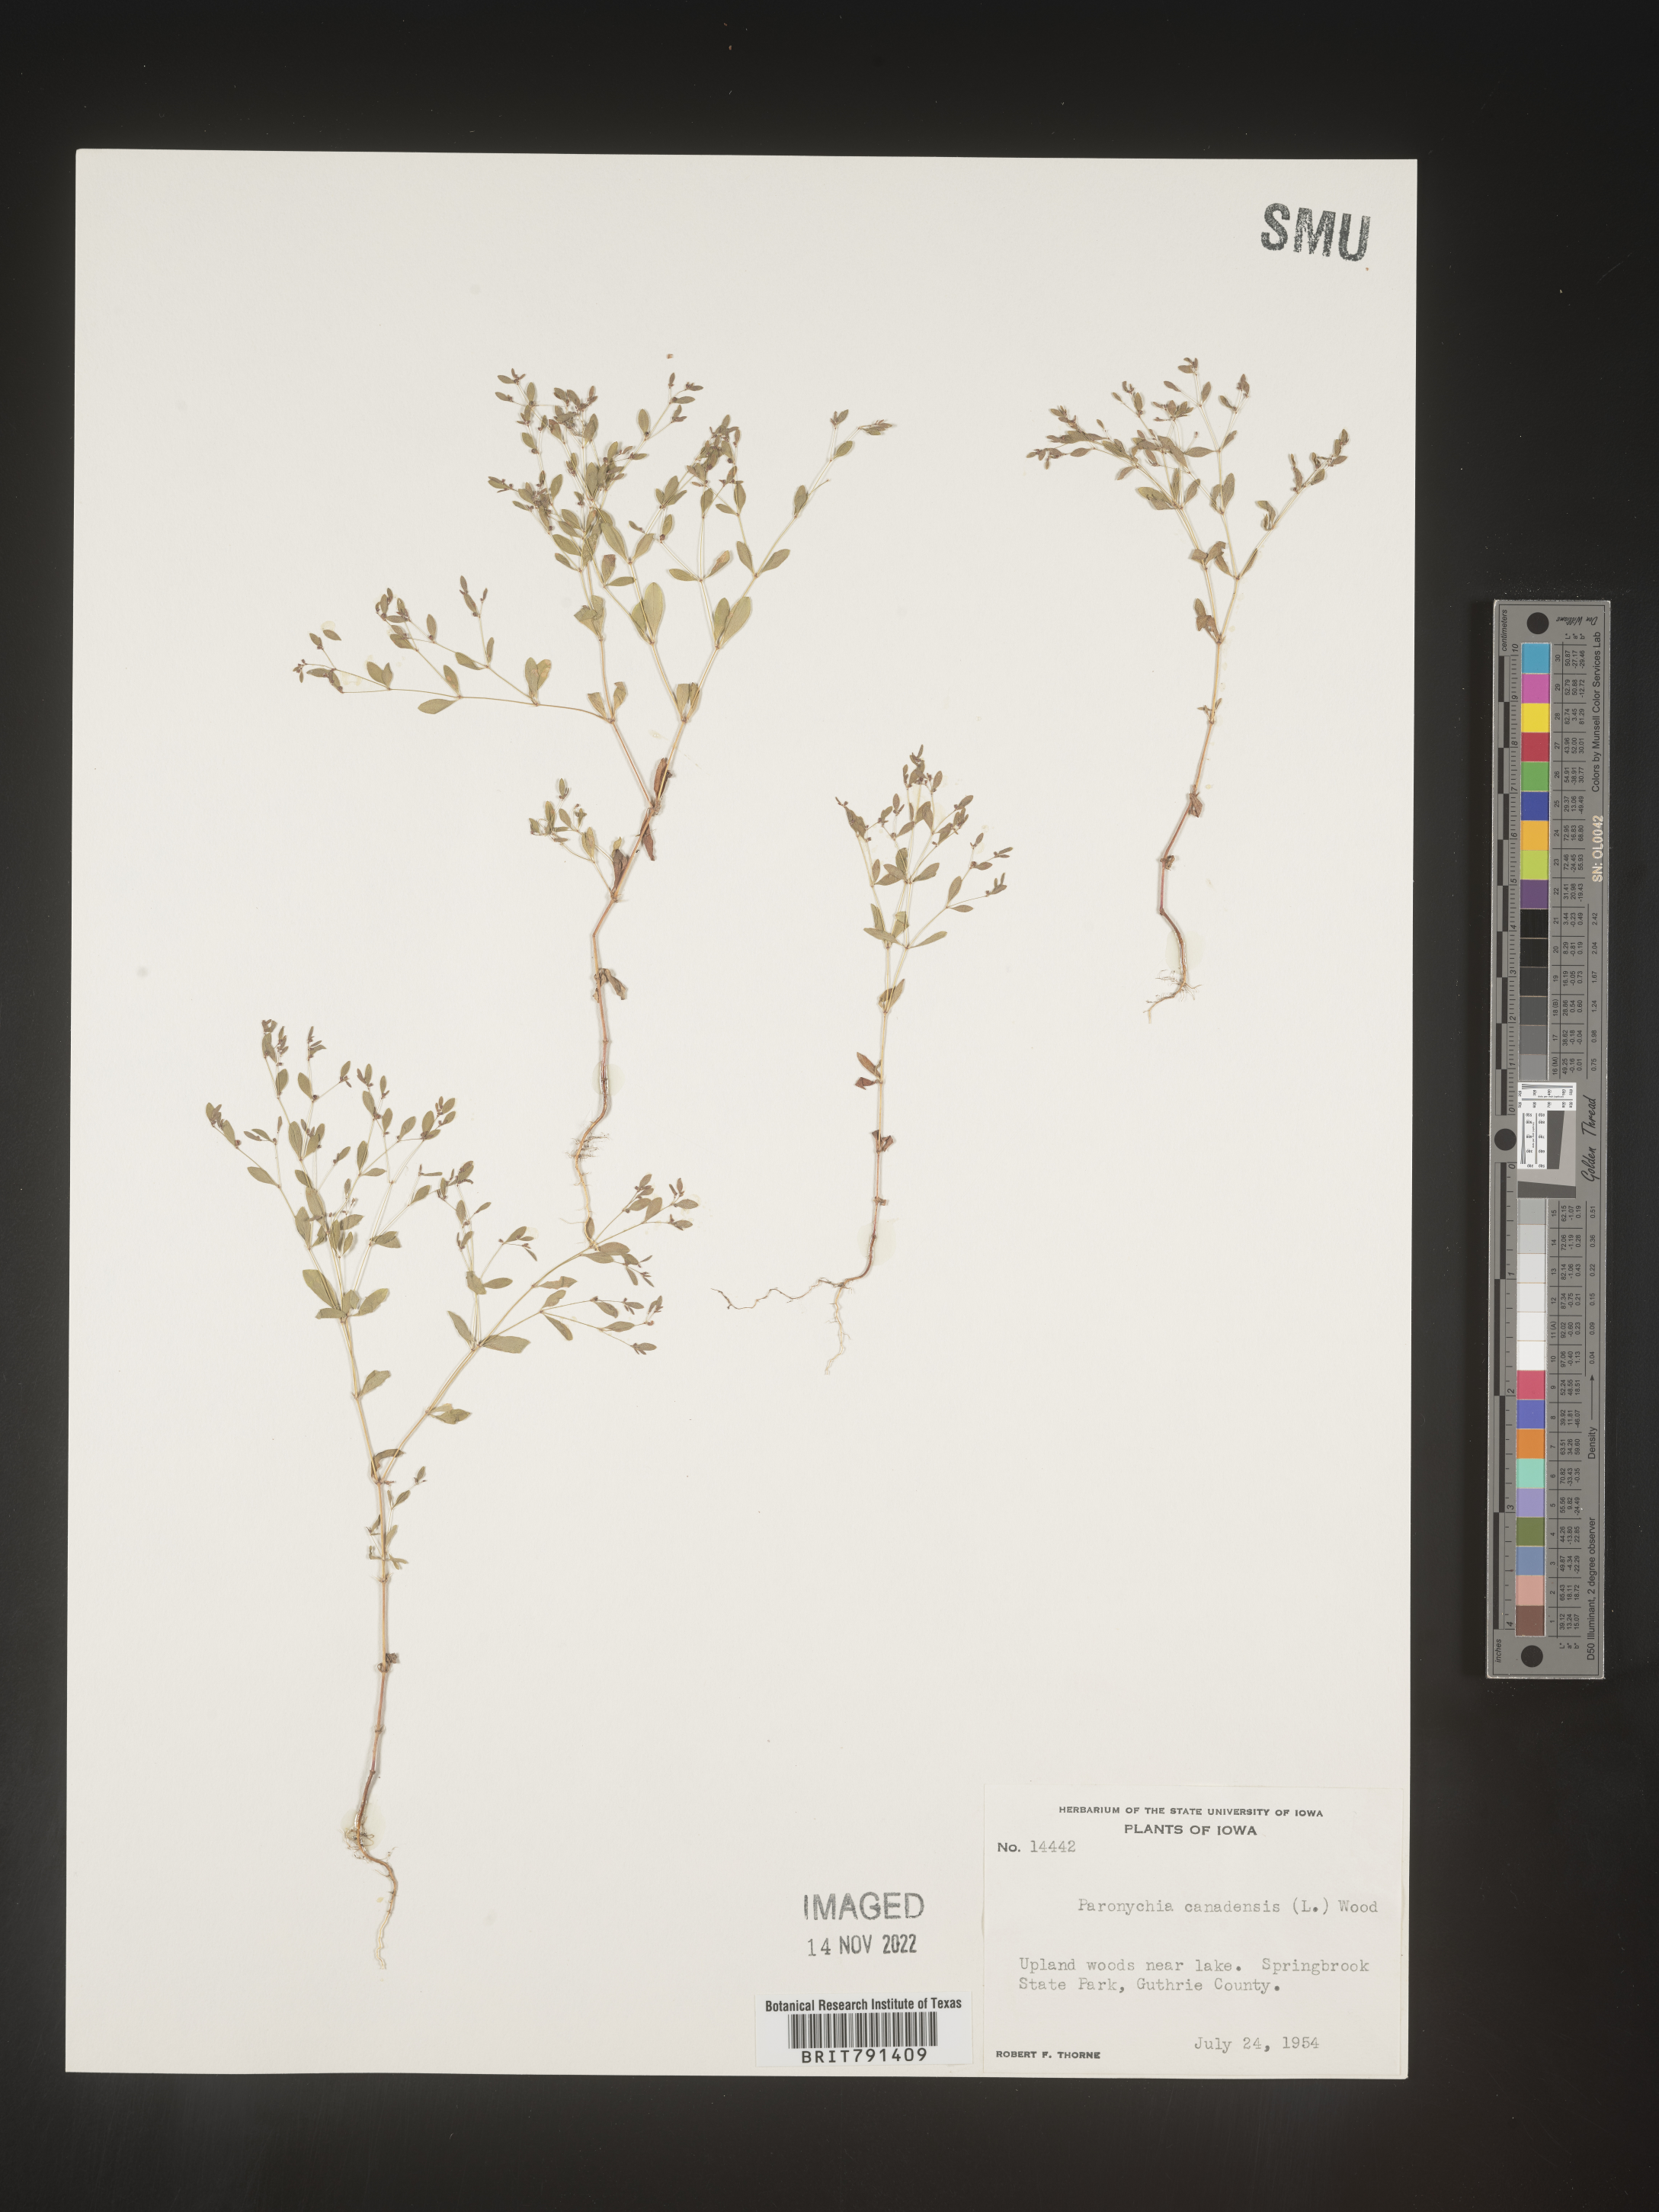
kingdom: Plantae
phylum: Tracheophyta
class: Magnoliopsida
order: Caryophyllales
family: Caryophyllaceae
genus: Paronychia
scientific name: Paronychia canadensis
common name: Canada forked nailwort
